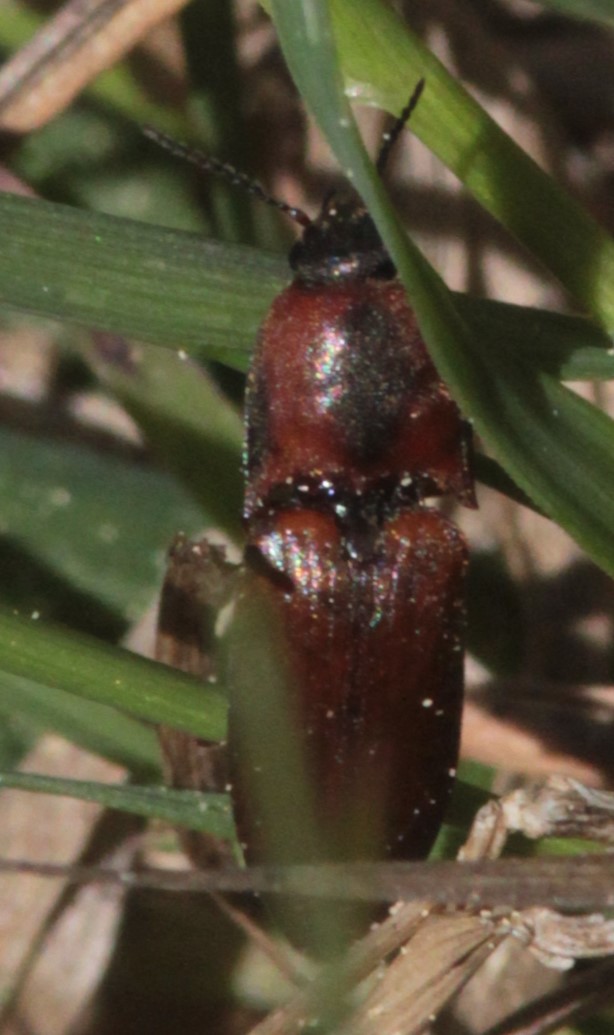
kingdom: Animalia
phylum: Arthropoda
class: Insecta
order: Coleoptera
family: Elateridae
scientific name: Elateridae
